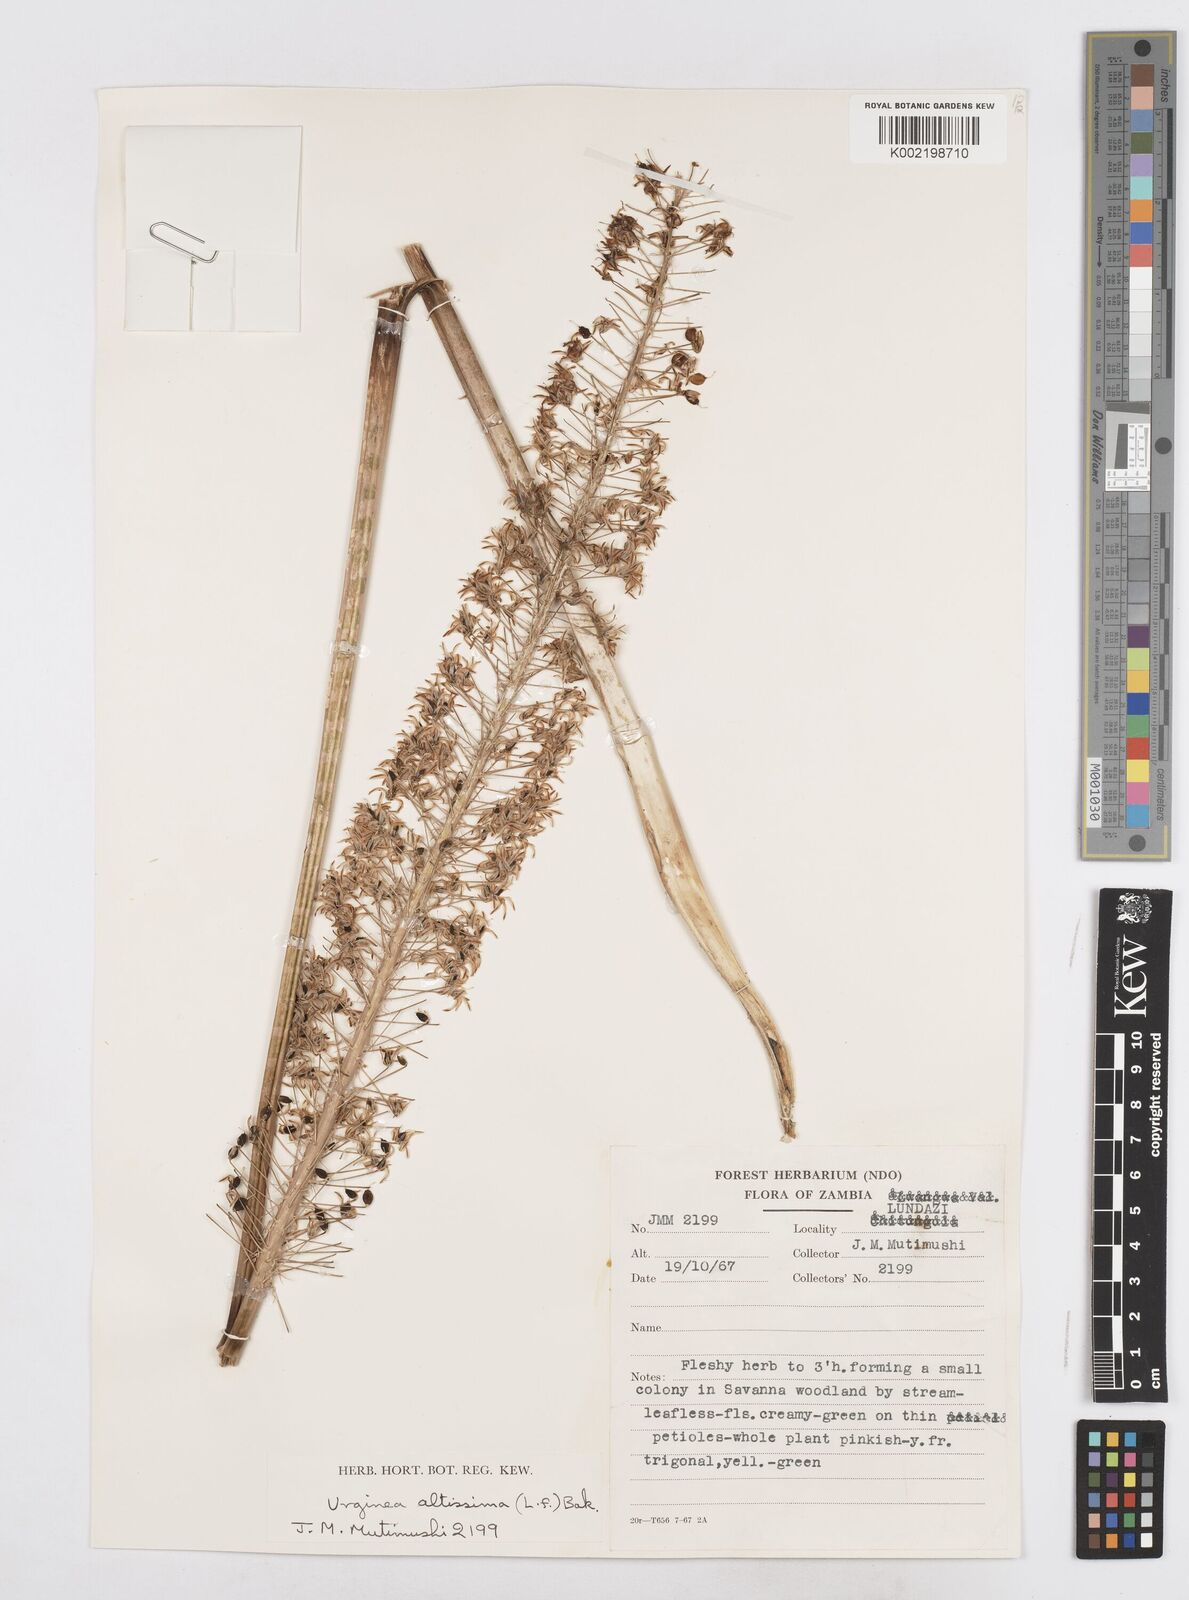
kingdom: Plantae
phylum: Tracheophyta
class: Liliopsida
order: Asparagales
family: Asparagaceae
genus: Drimia
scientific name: Drimia
